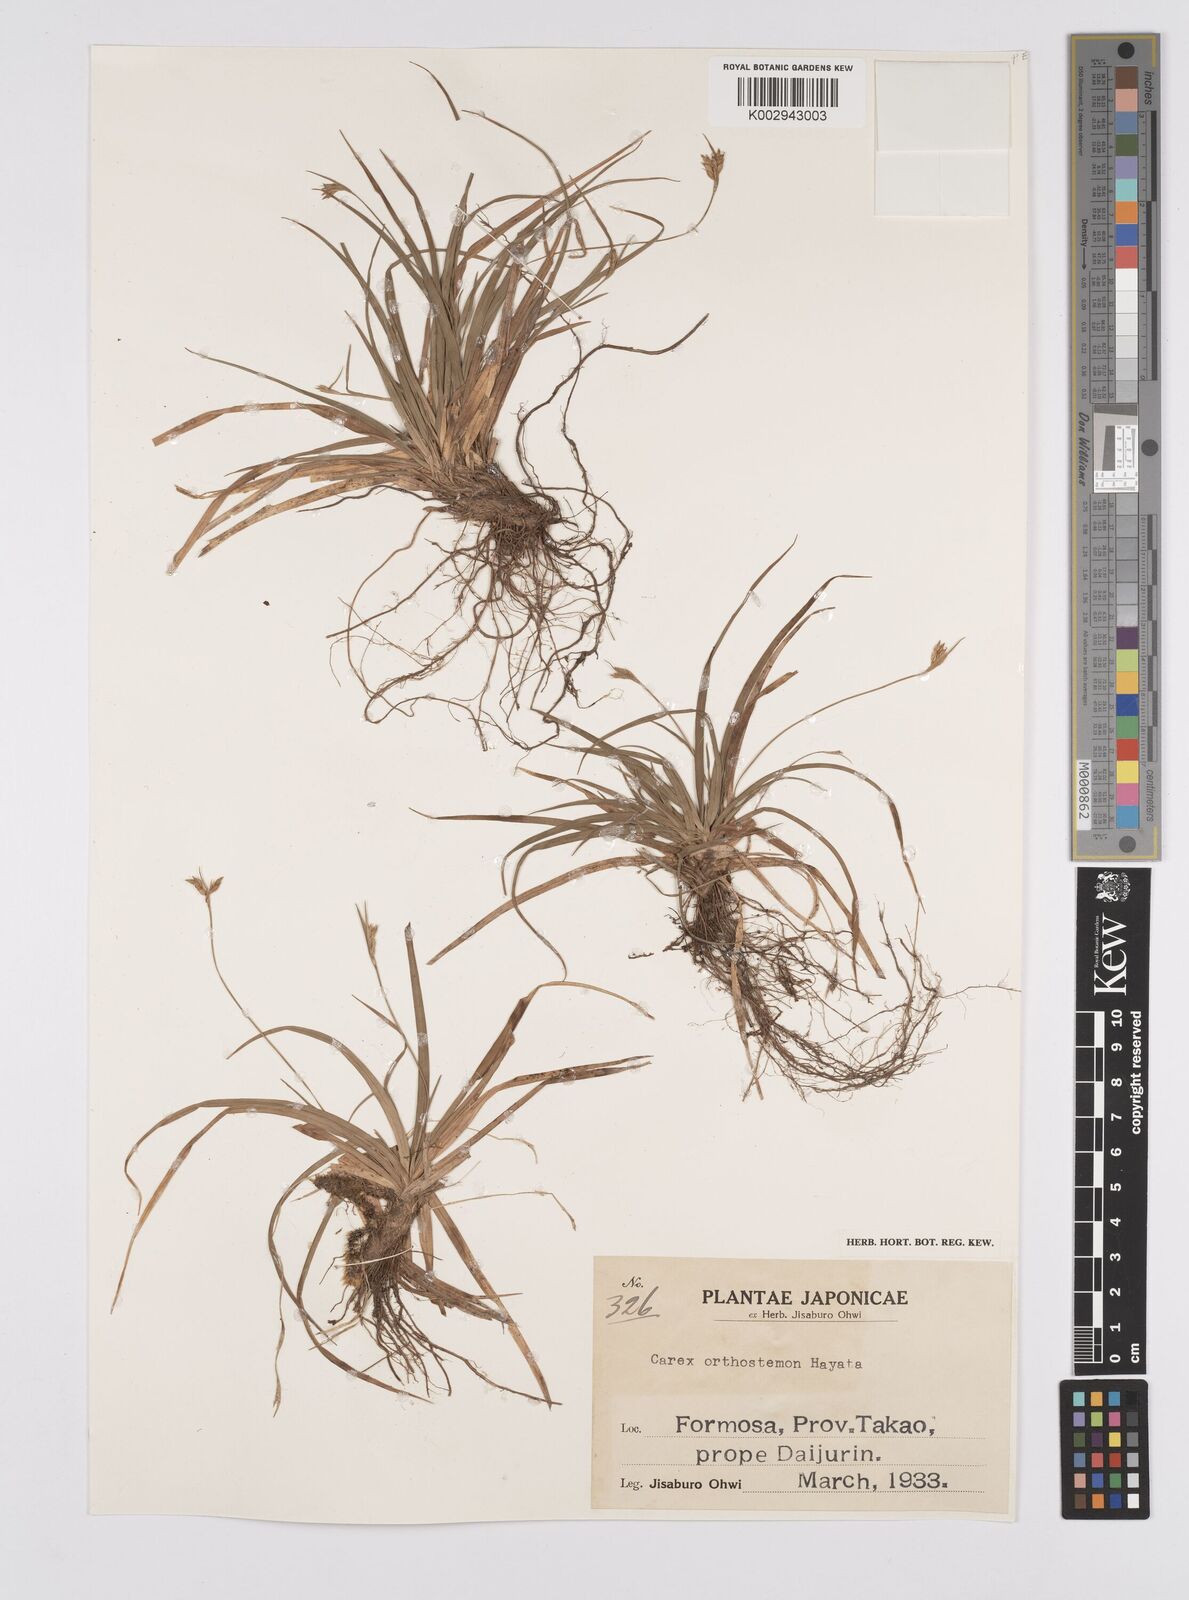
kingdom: Plantae
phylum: Tracheophyta
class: Liliopsida
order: Poales
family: Cyperaceae
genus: Carex
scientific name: Carex orthostemon
